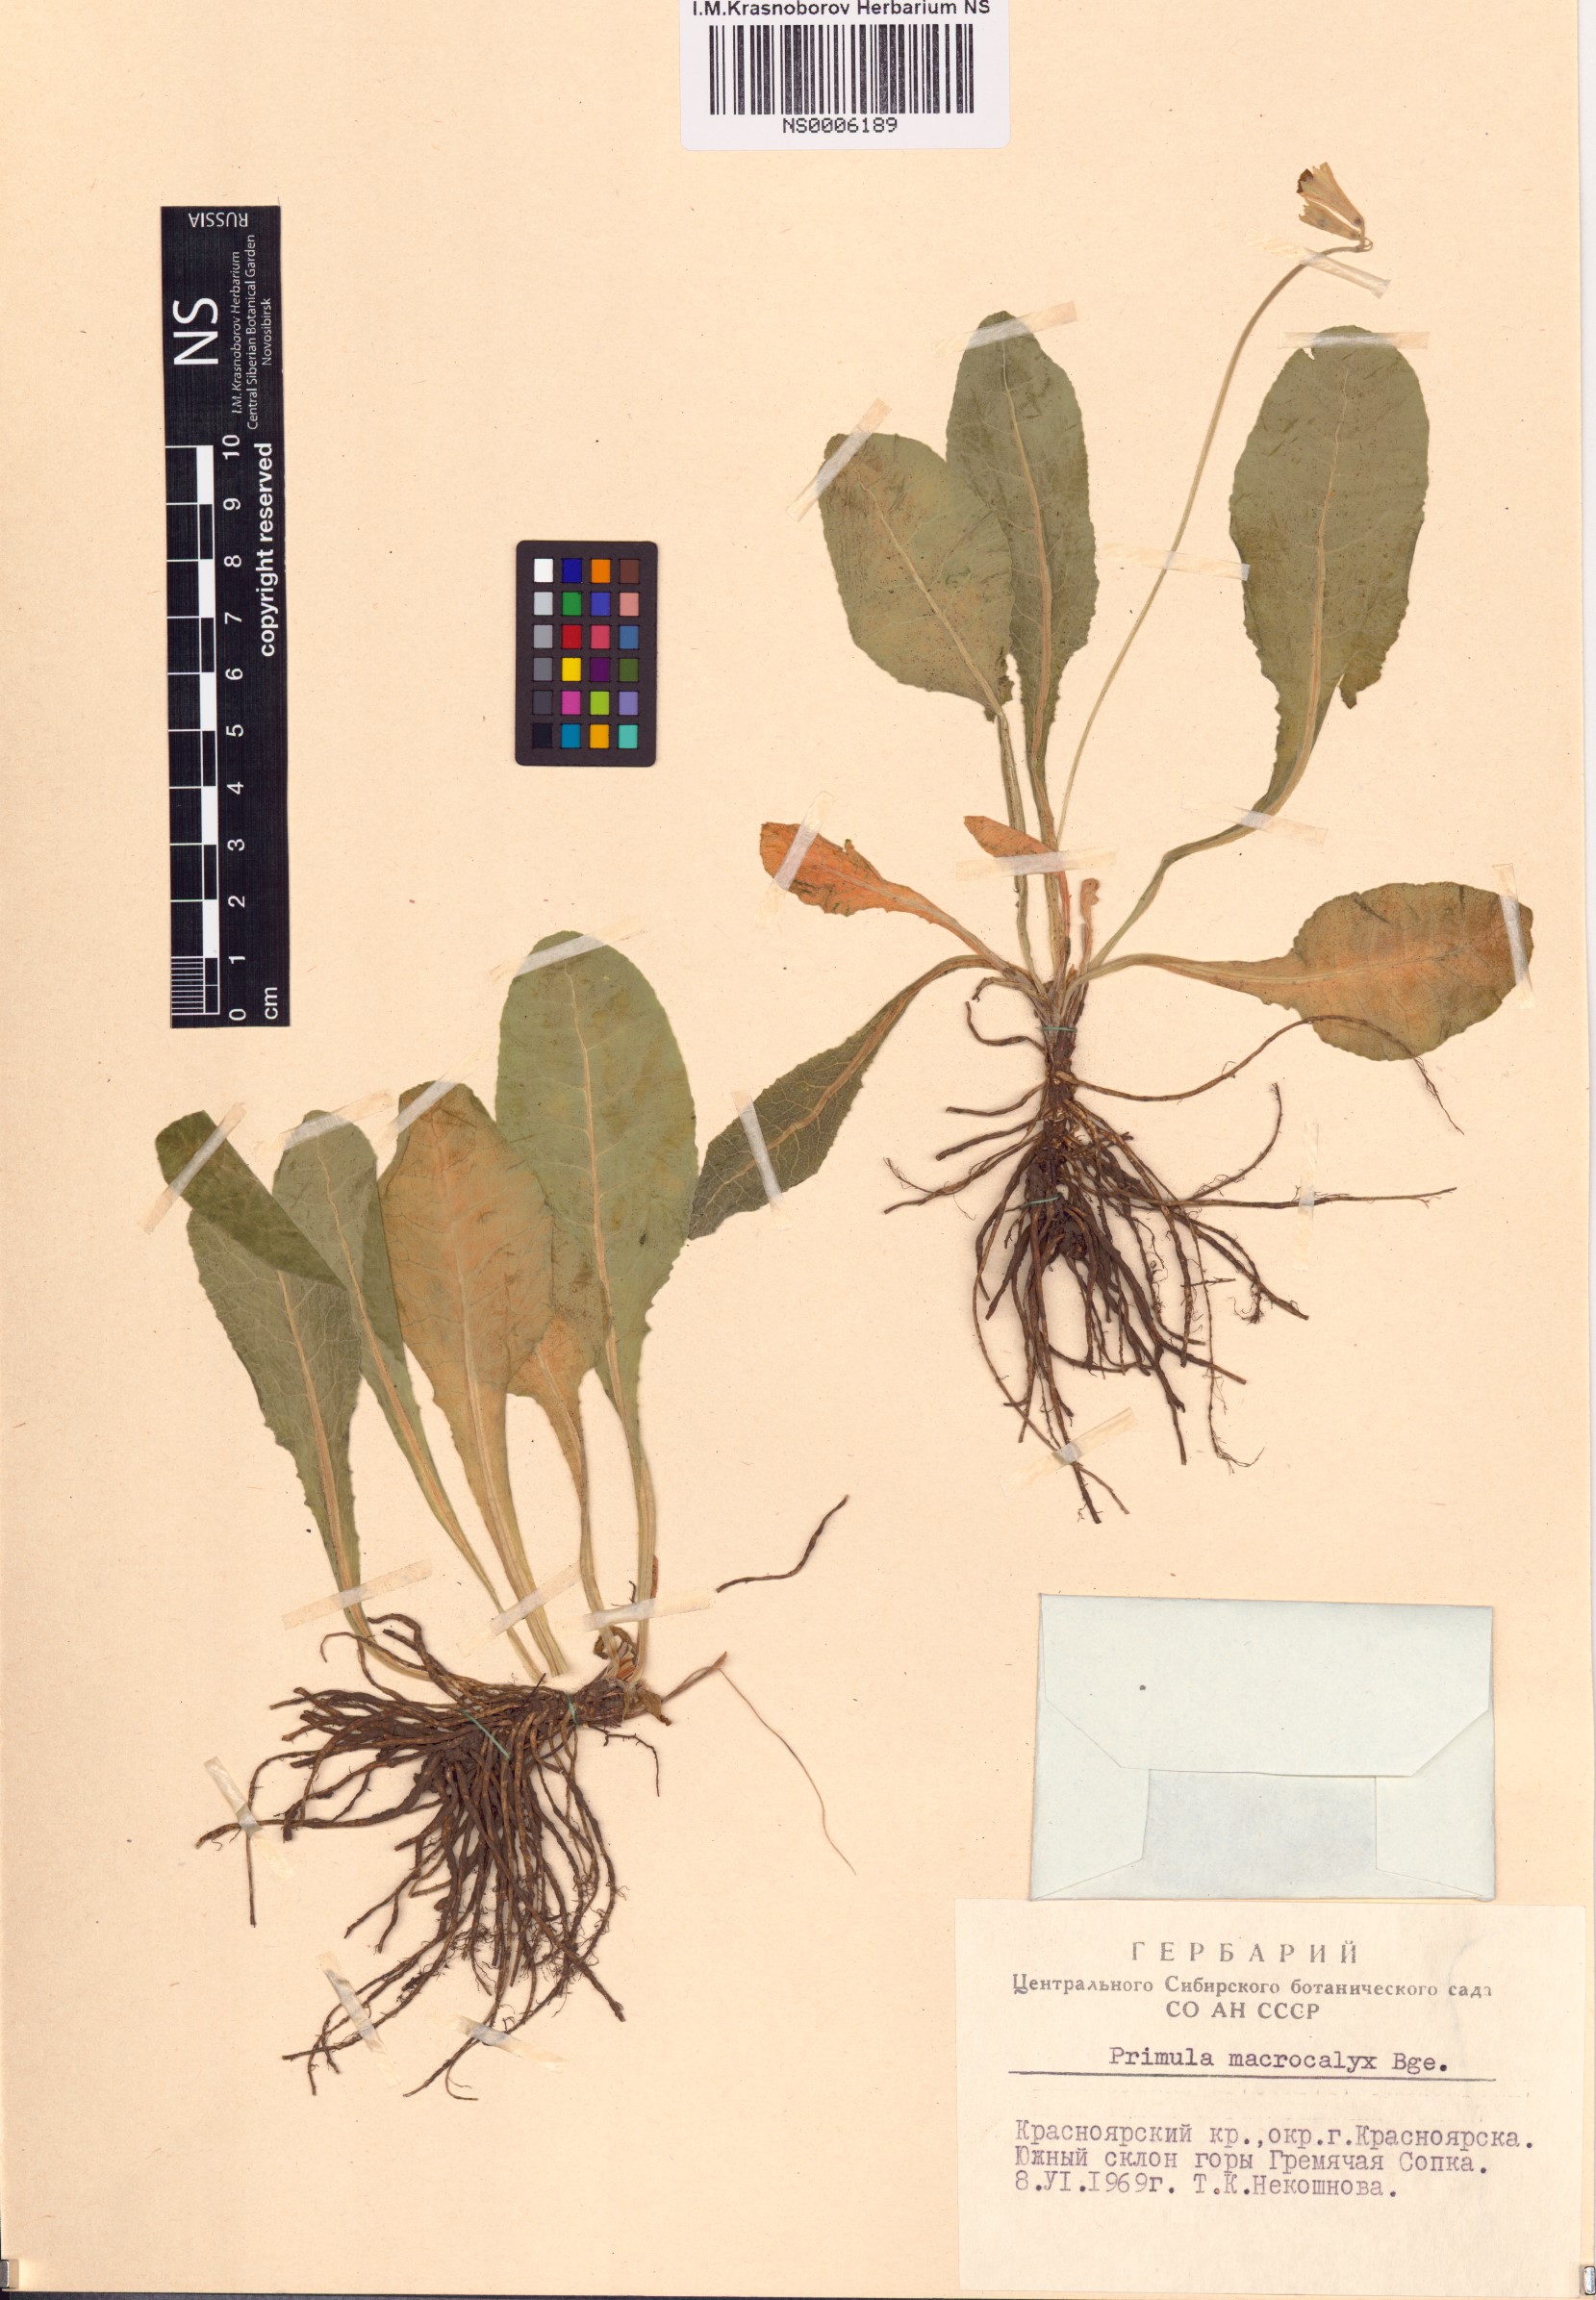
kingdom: Plantae
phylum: Tracheophyta
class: Magnoliopsida
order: Ericales
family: Primulaceae
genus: Primula
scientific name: Primula veris
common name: Cowslip
